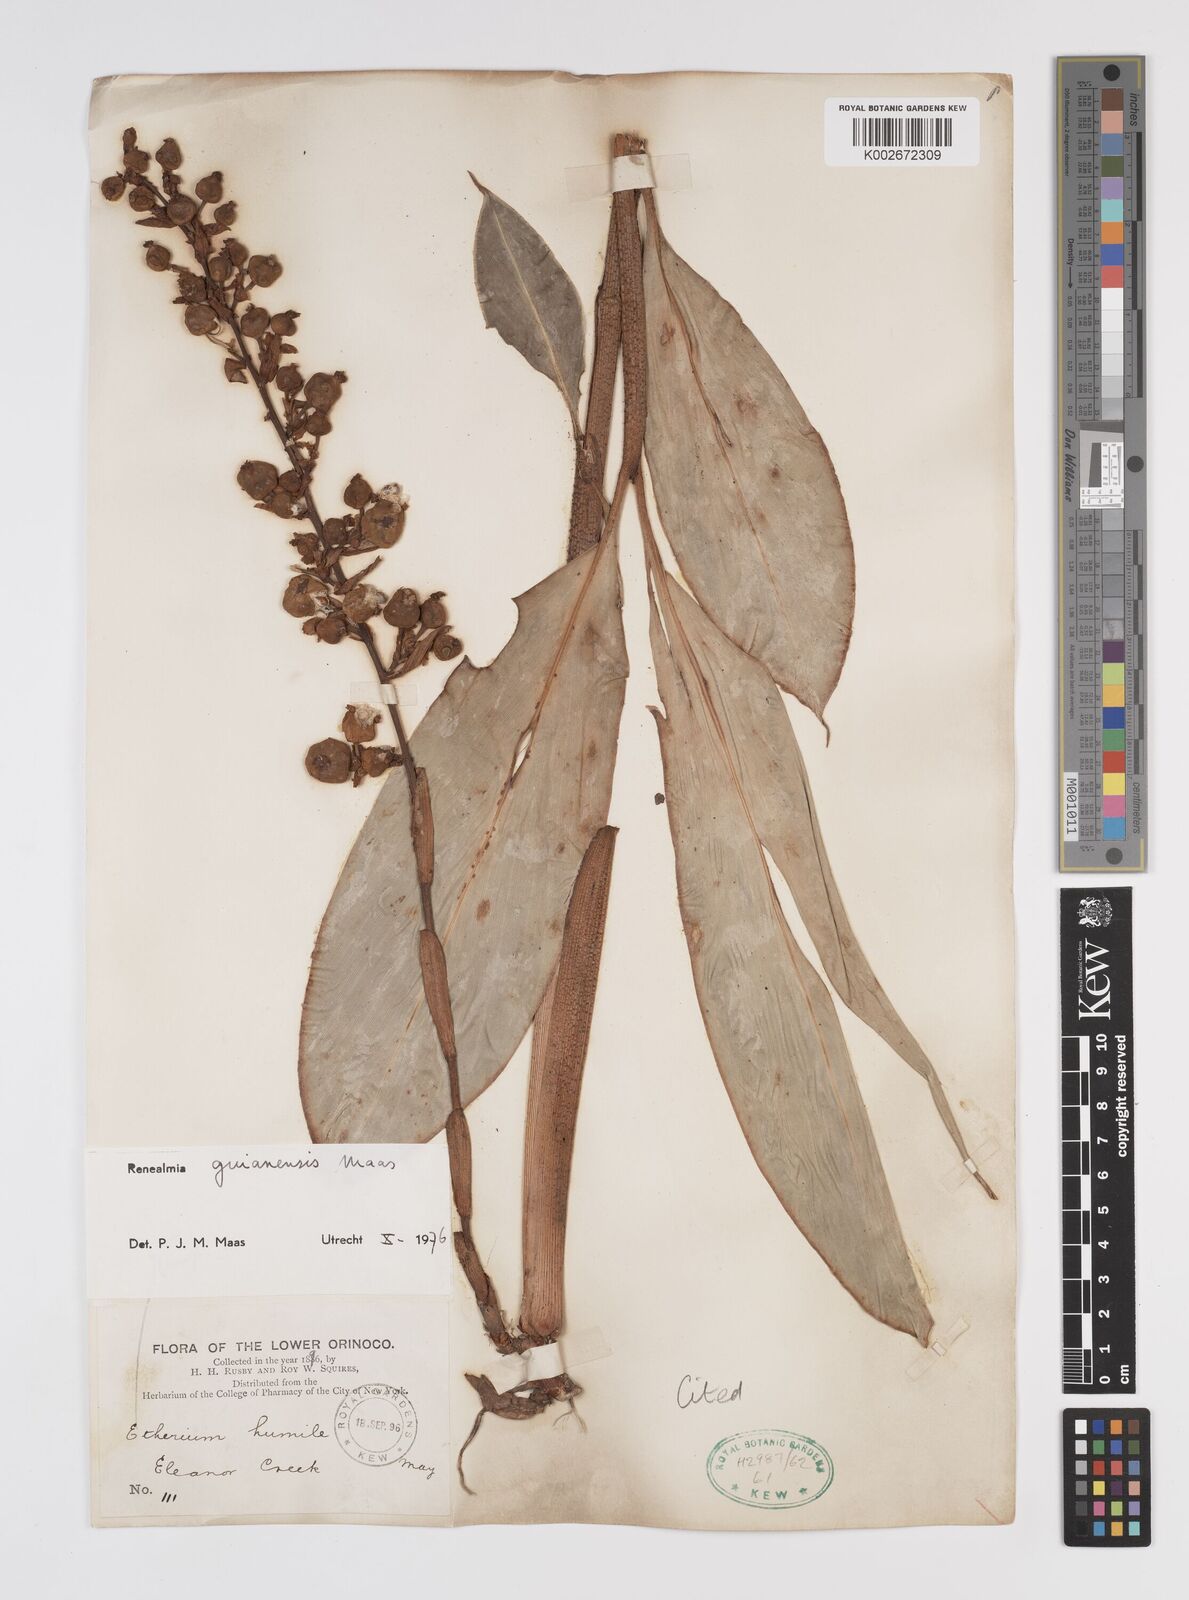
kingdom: Plantae
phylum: Tracheophyta
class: Liliopsida
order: Zingiberales
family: Zingiberaceae
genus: Renealmia
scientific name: Renealmia guianensis
